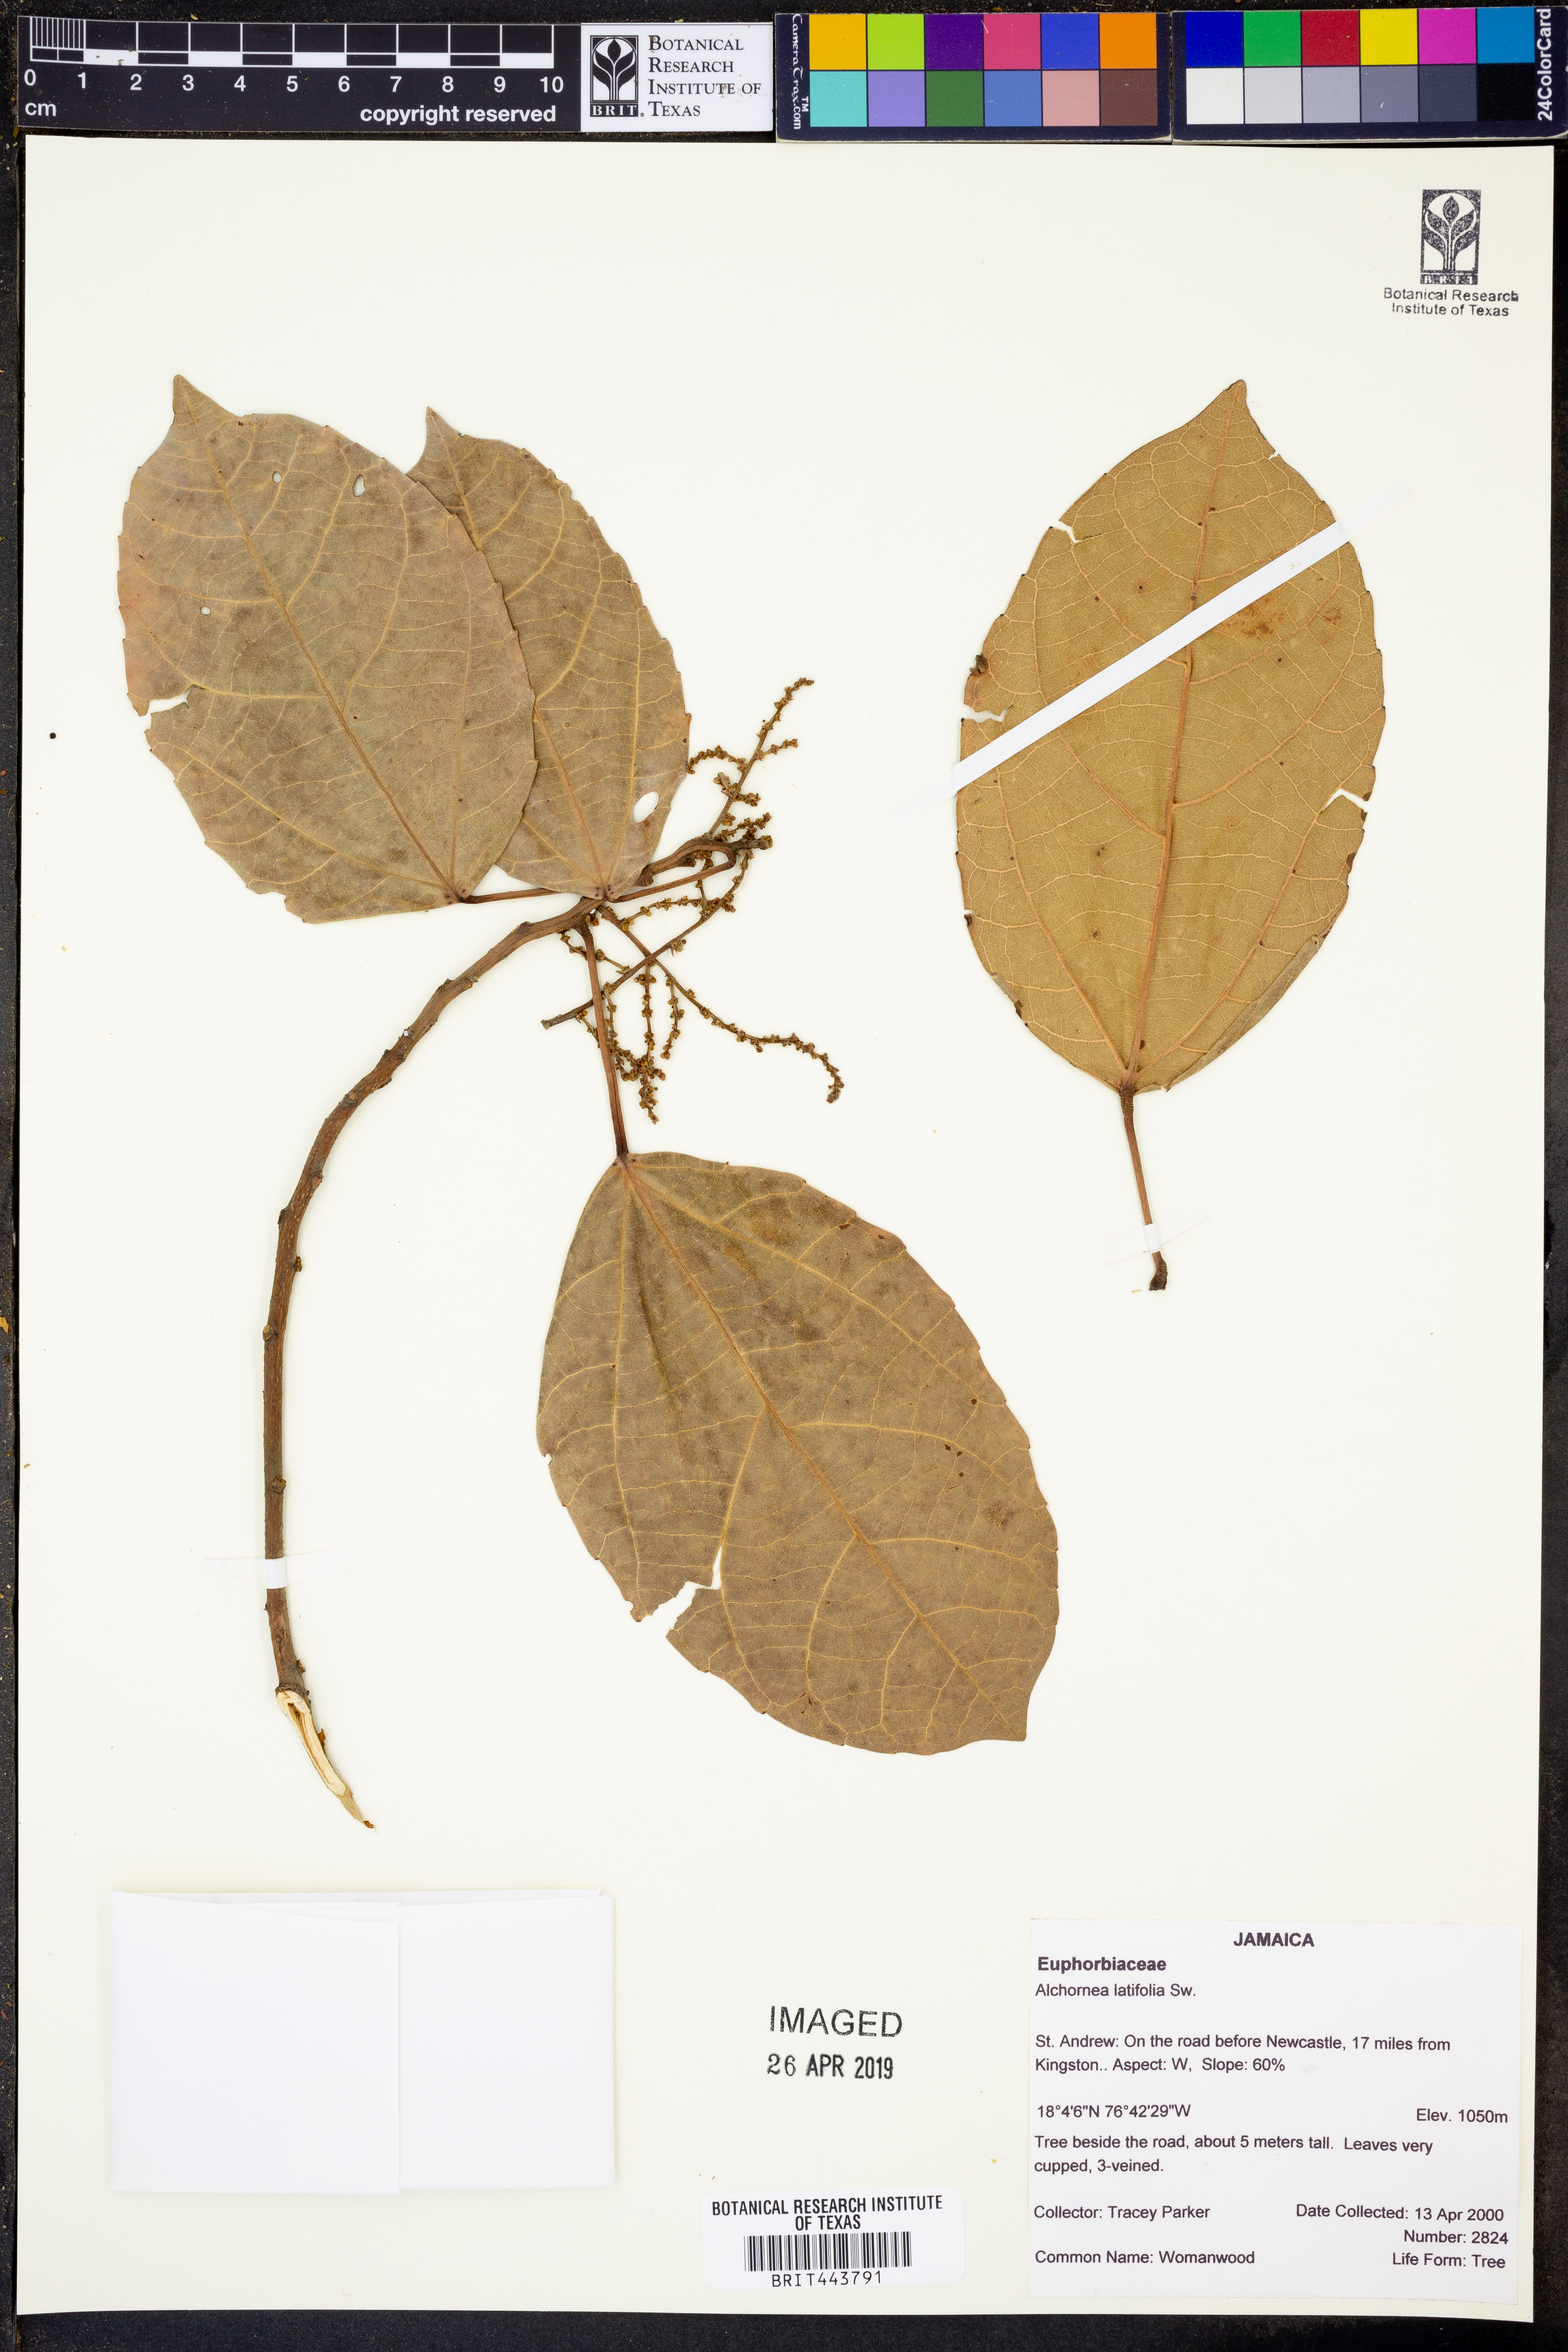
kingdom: Plantae
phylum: Tracheophyta
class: Magnoliopsida
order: Malpighiales
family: Euphorbiaceae
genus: Alchornea
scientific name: Alchornea latifolia
